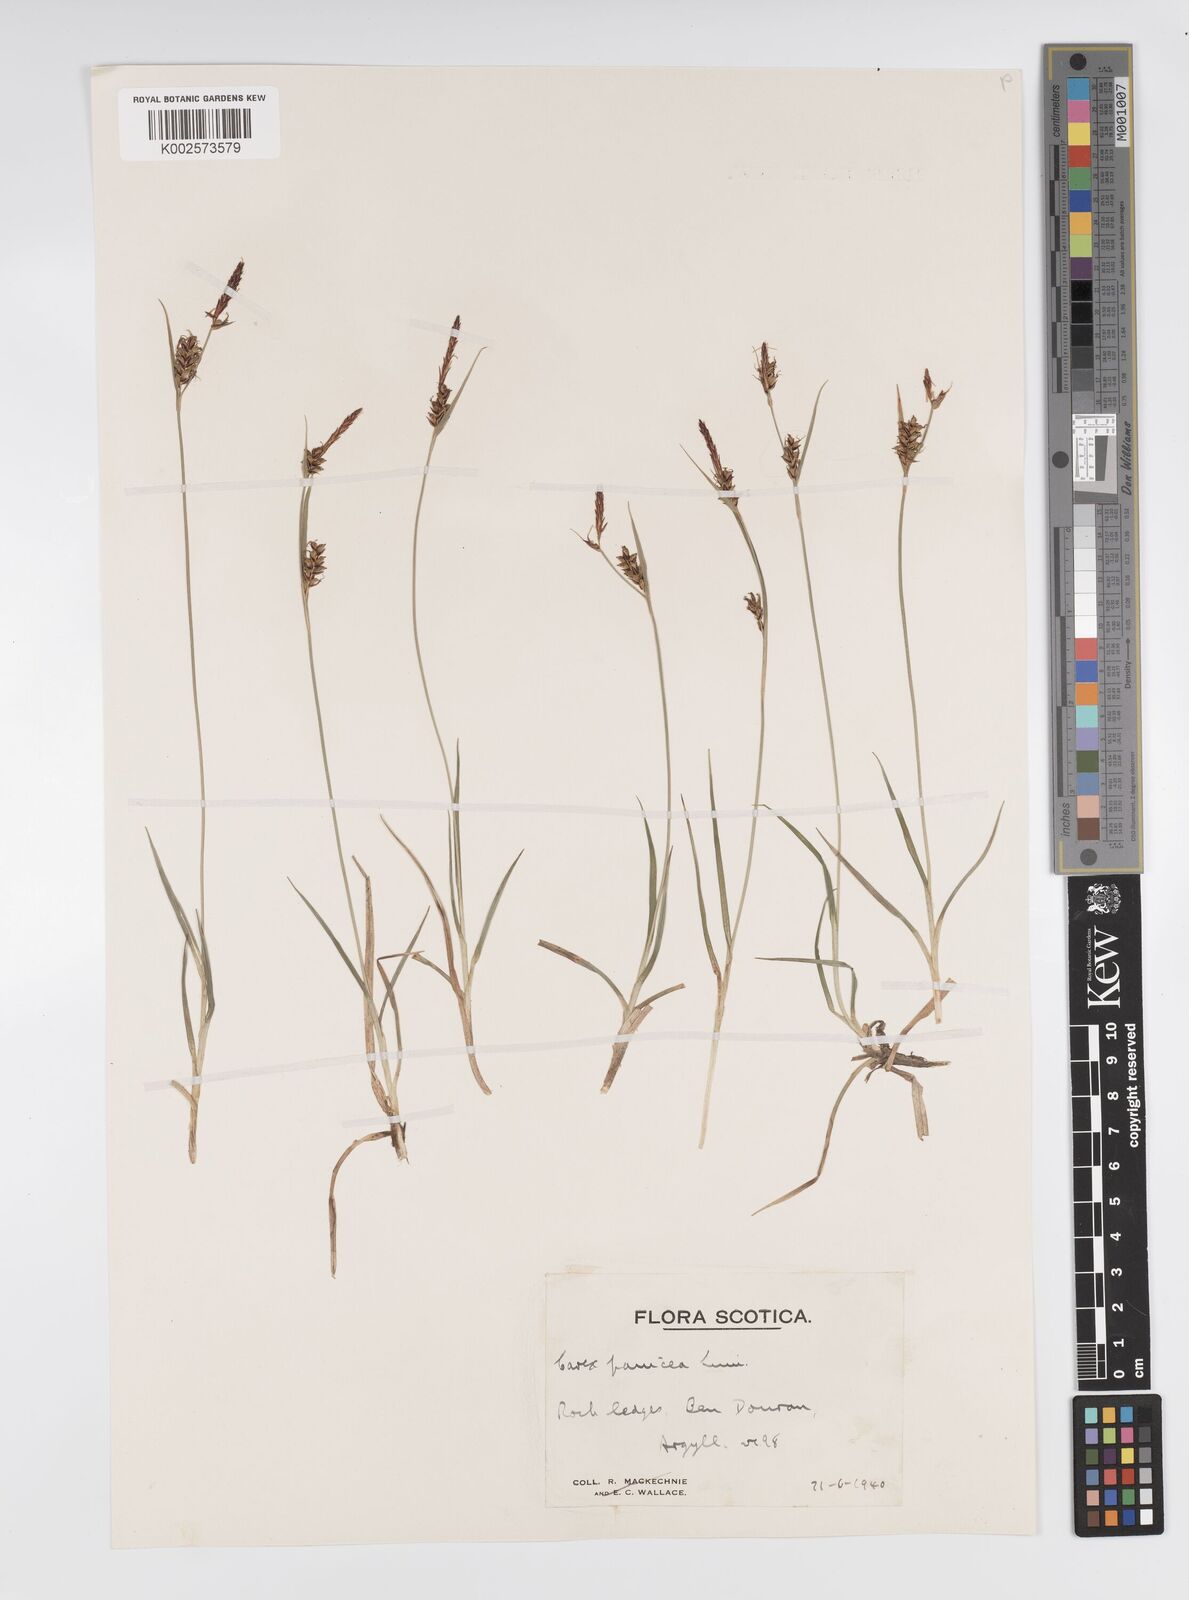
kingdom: Plantae
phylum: Tracheophyta
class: Liliopsida
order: Poales
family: Cyperaceae
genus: Carex
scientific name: Carex panicea
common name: Carnation sedge
